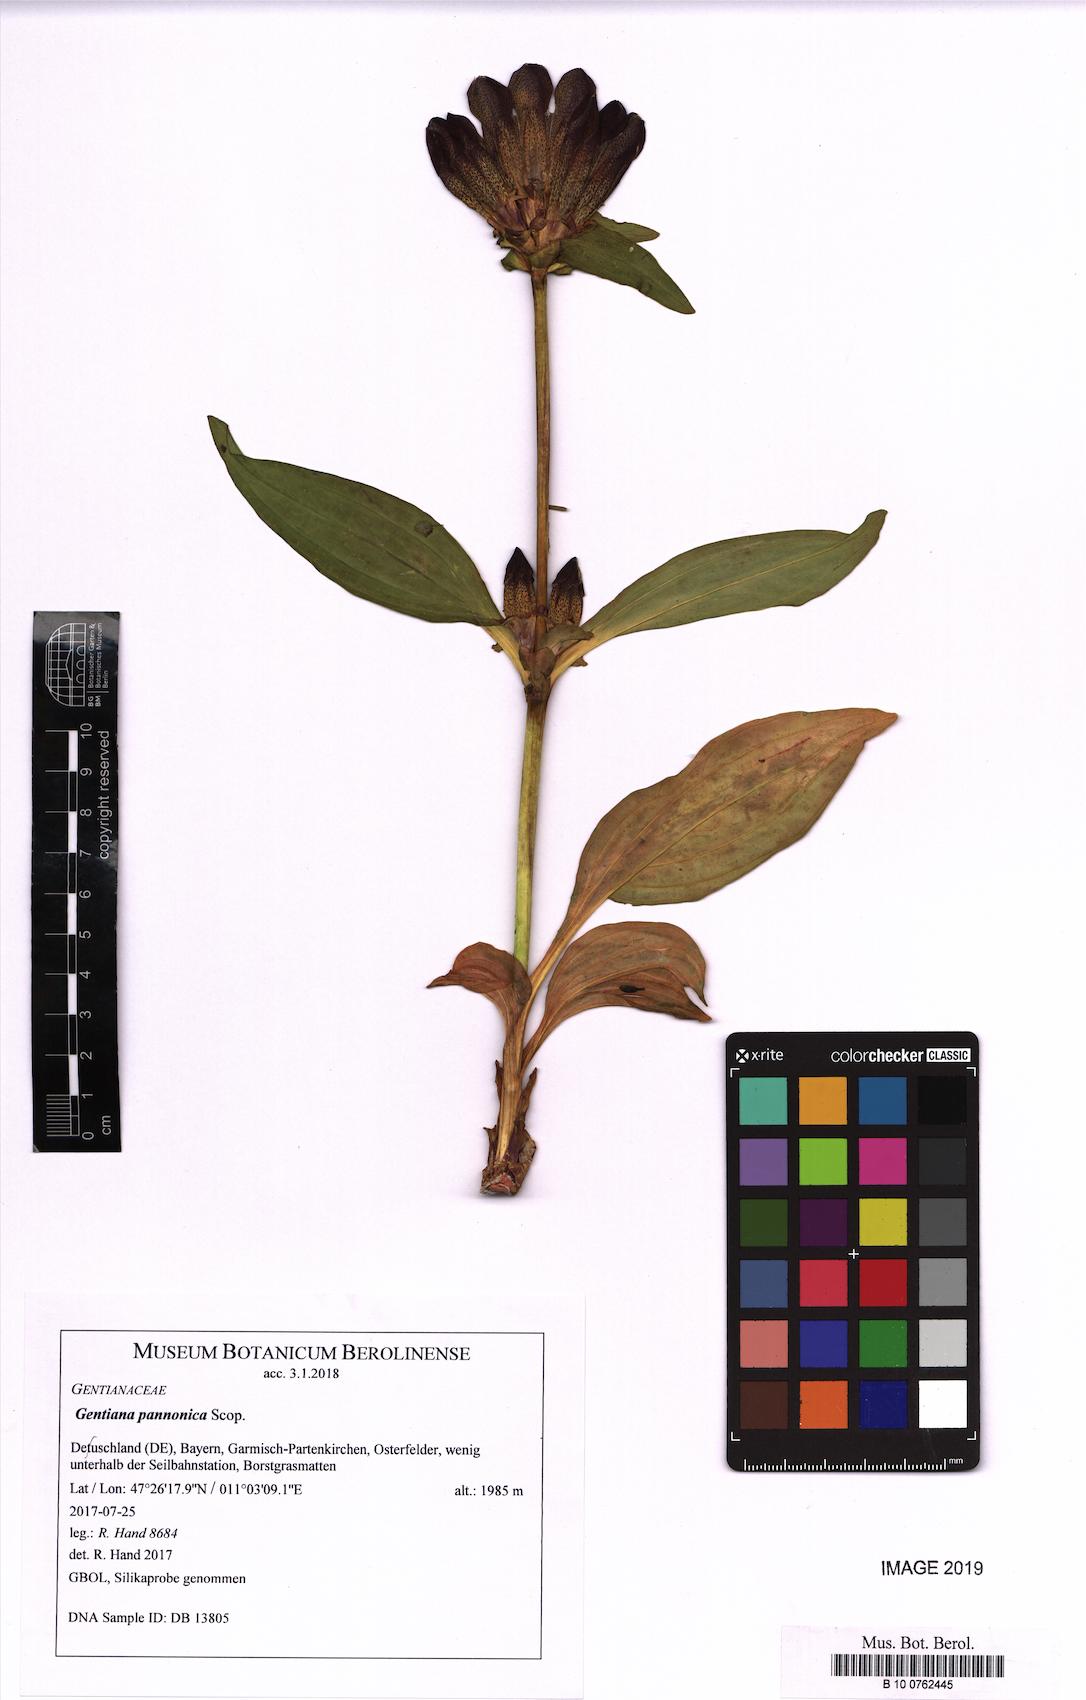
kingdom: Plantae
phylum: Tracheophyta
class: Magnoliopsida
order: Gentianales
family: Gentianaceae
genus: Gentiana
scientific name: Gentiana pannonica
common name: Hungarian gentian
